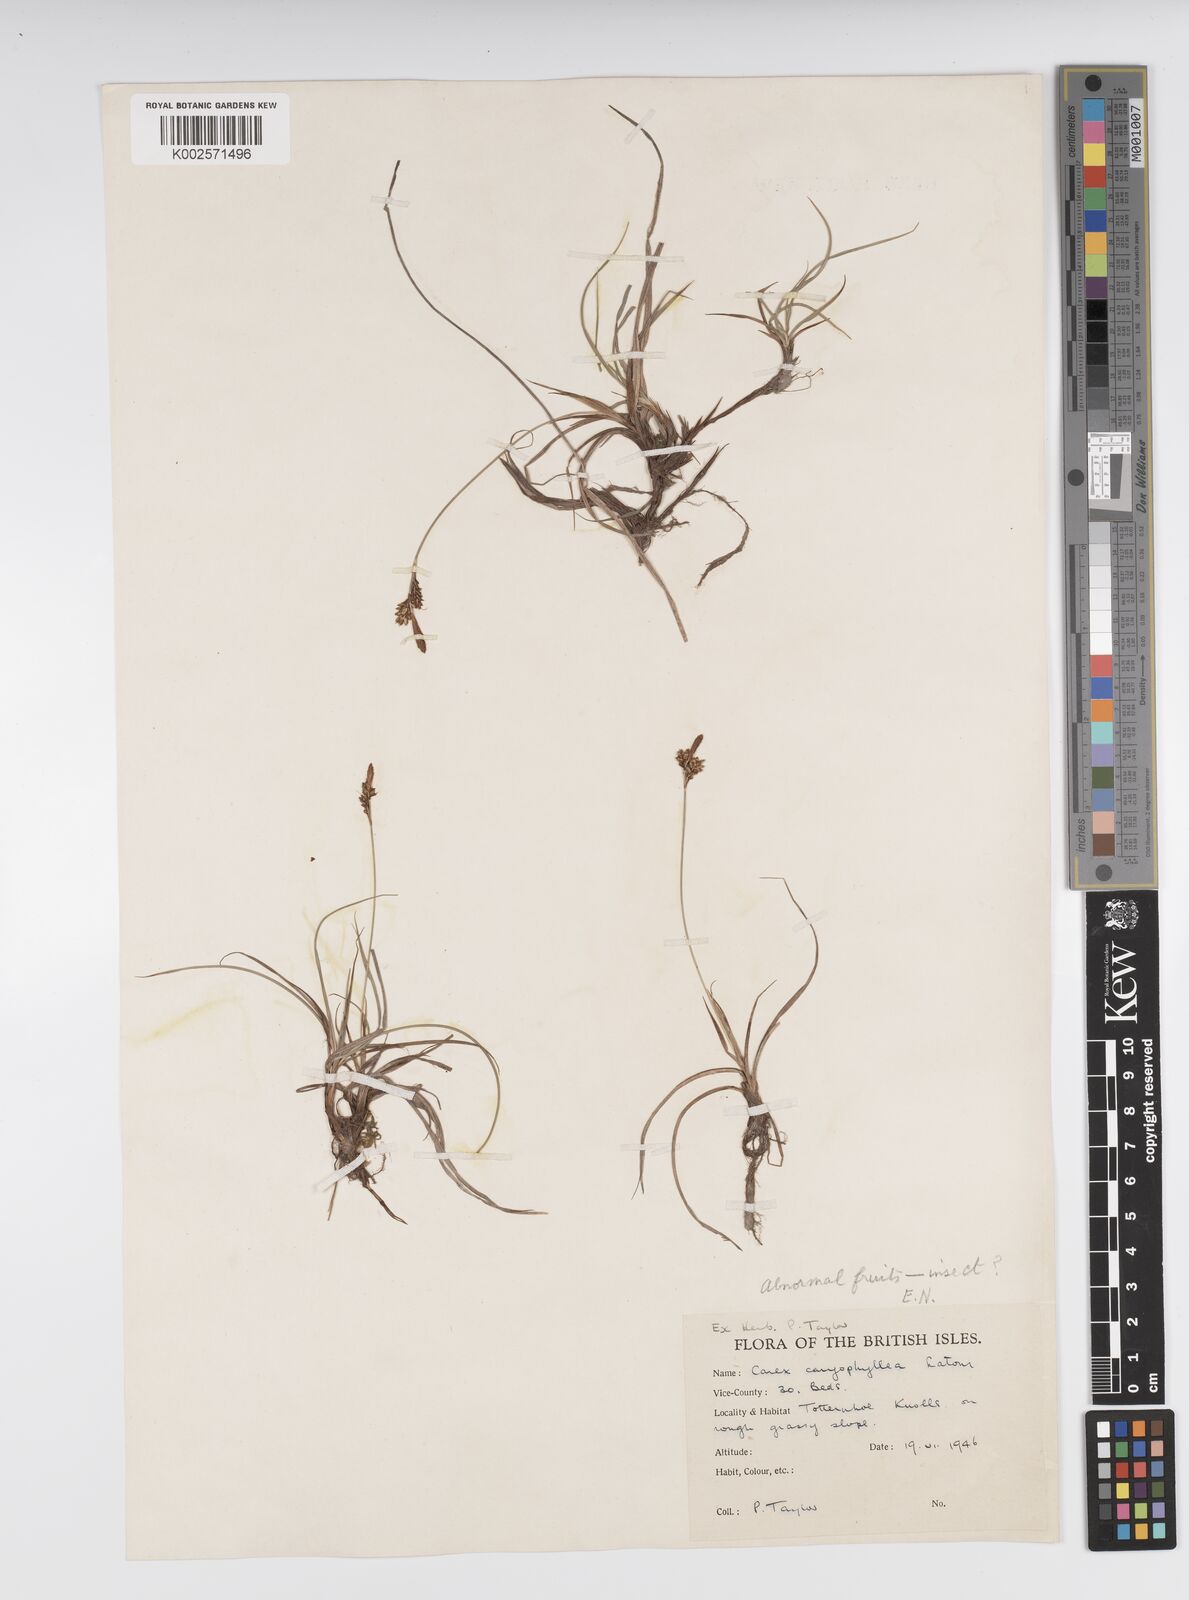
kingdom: Plantae
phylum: Tracheophyta
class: Liliopsida
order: Poales
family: Cyperaceae
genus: Carex
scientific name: Carex caryophyllea
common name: Spring sedge
